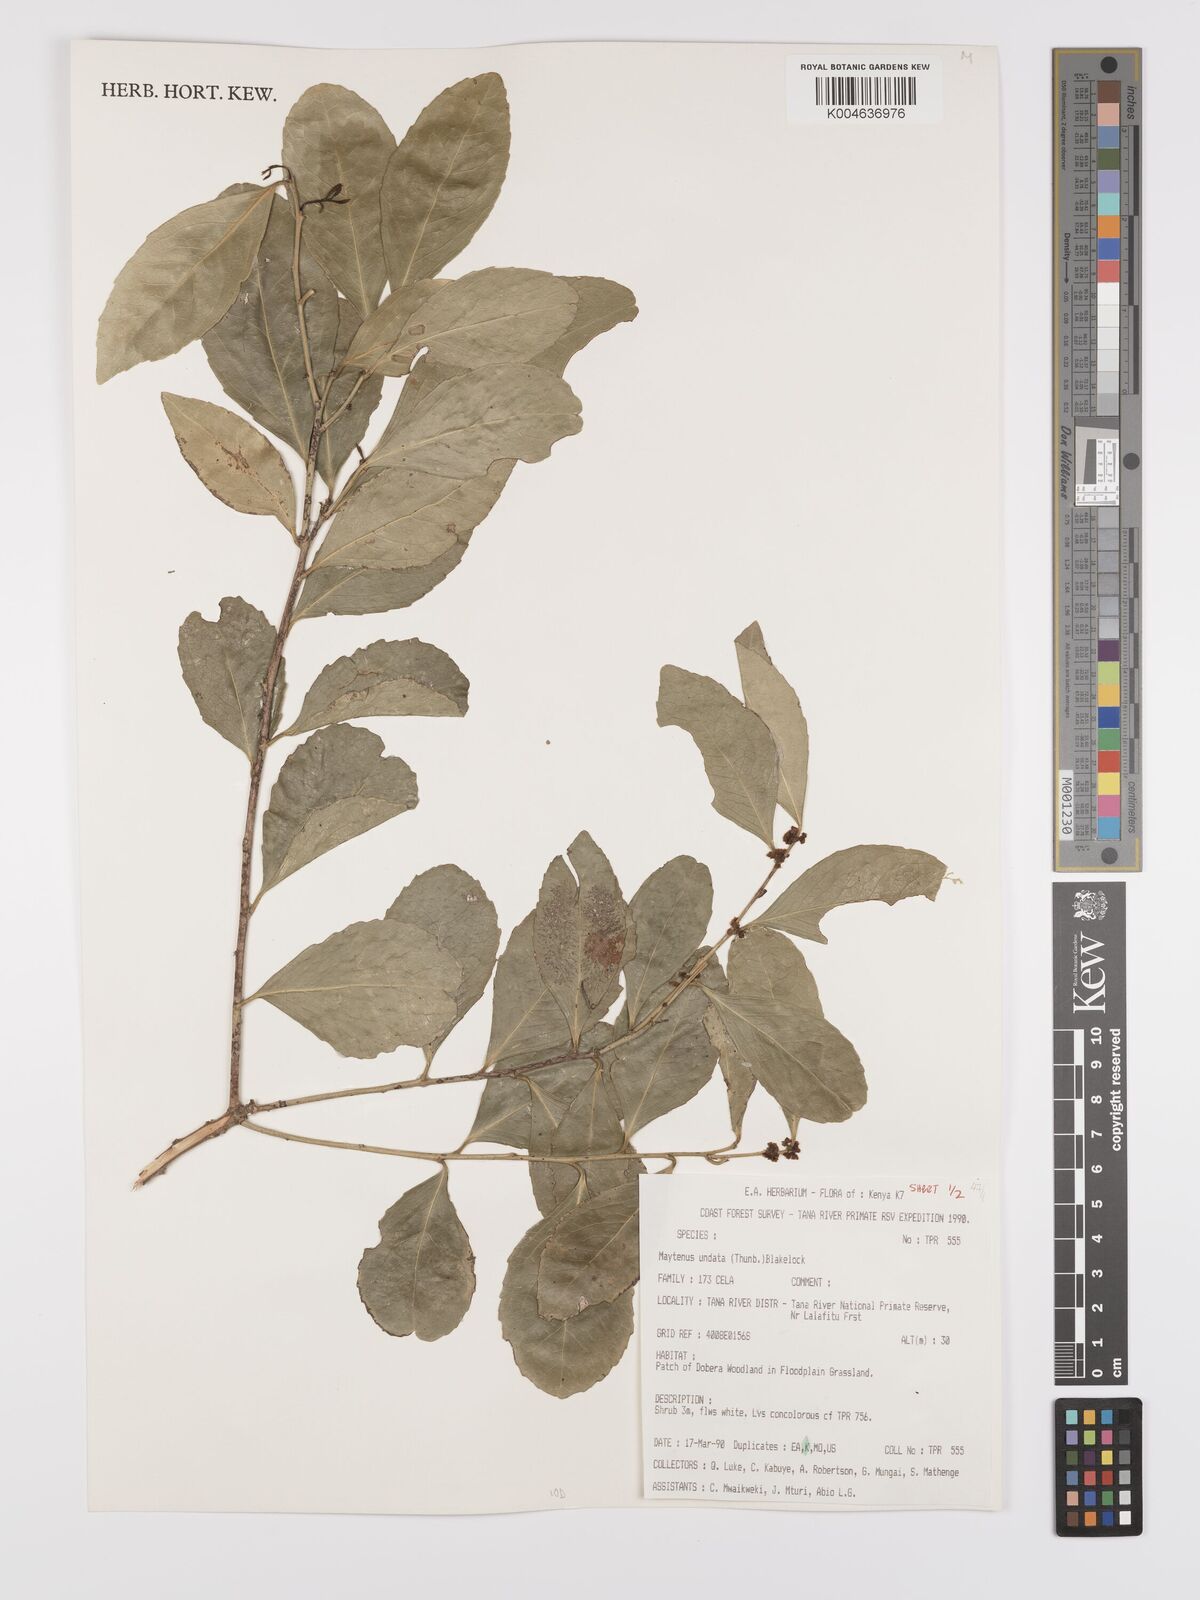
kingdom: Plantae
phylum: Tracheophyta
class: Magnoliopsida
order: Celastrales
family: Celastraceae
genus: Gymnosporia
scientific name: Gymnosporia undata
